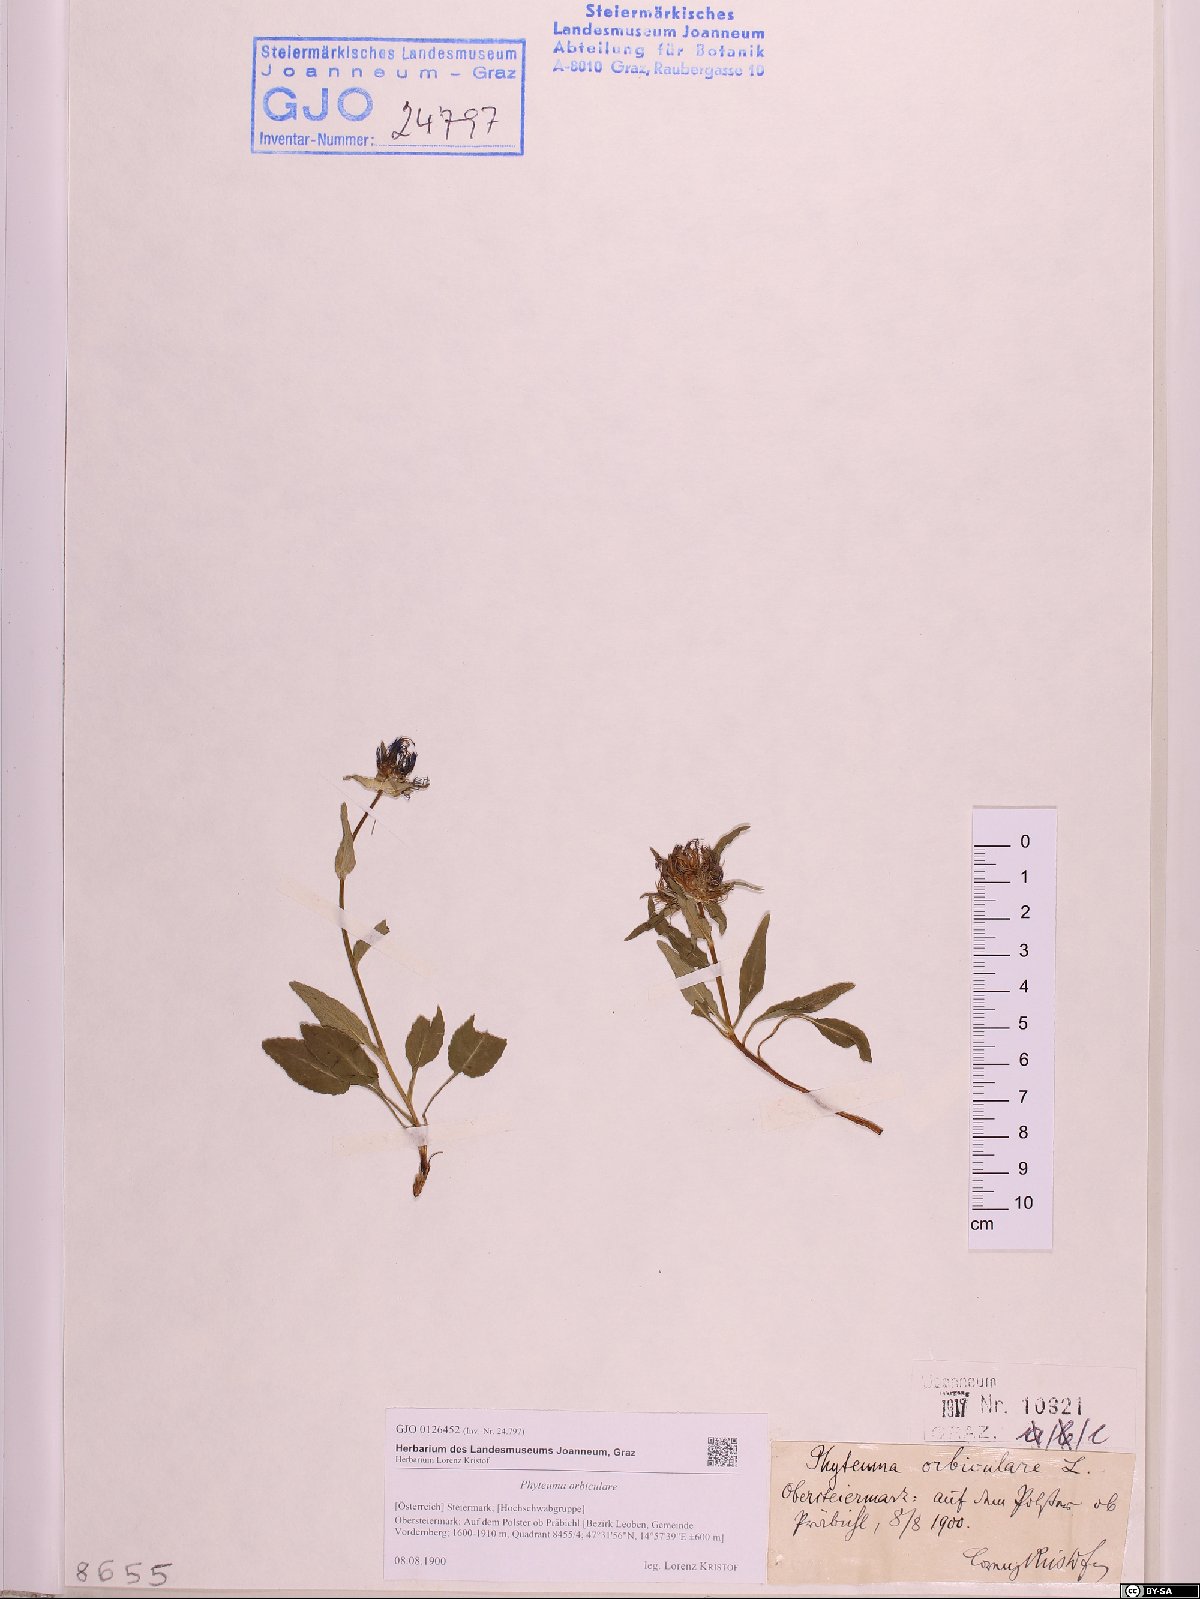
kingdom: Plantae
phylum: Tracheophyta
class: Magnoliopsida
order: Asterales
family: Campanulaceae
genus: Phyteuma
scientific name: Phyteuma orbiculare
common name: Round-headed rampion
